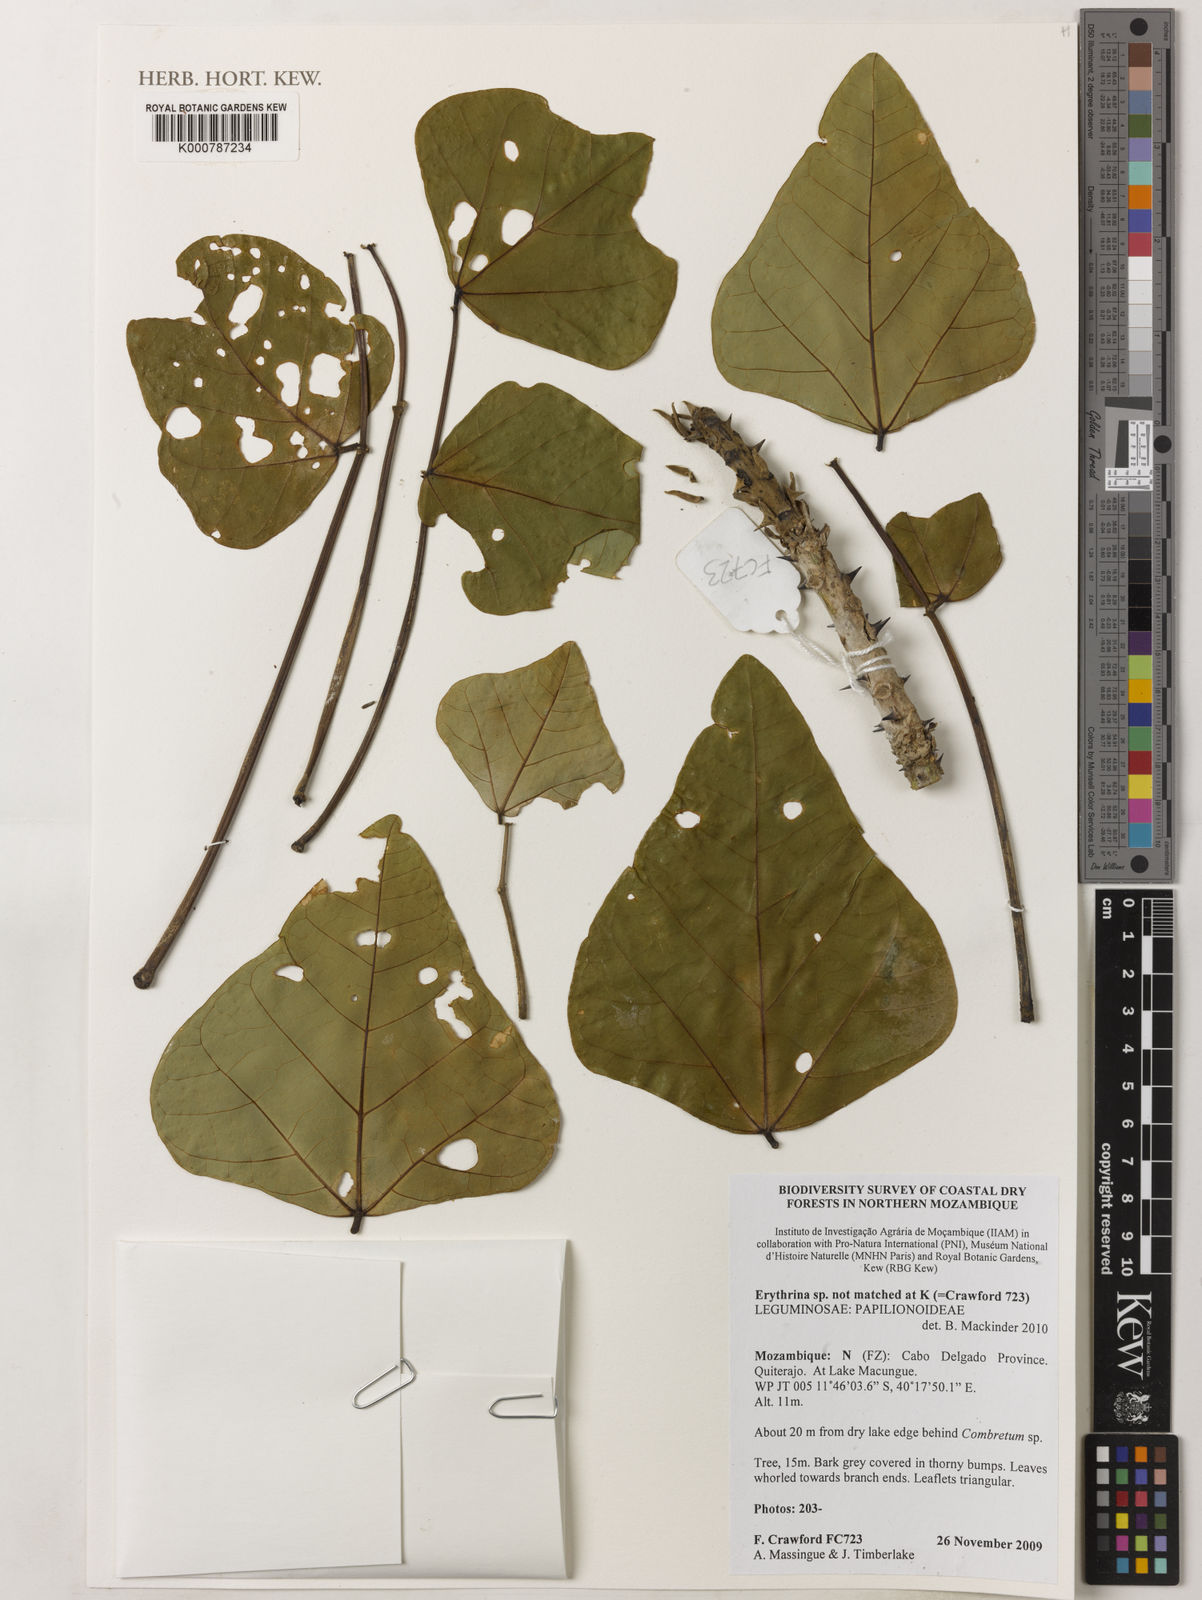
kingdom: Plantae
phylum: Tracheophyta
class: Magnoliopsida
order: Fabales
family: Fabaceae
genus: Erythrina
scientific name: Erythrina
